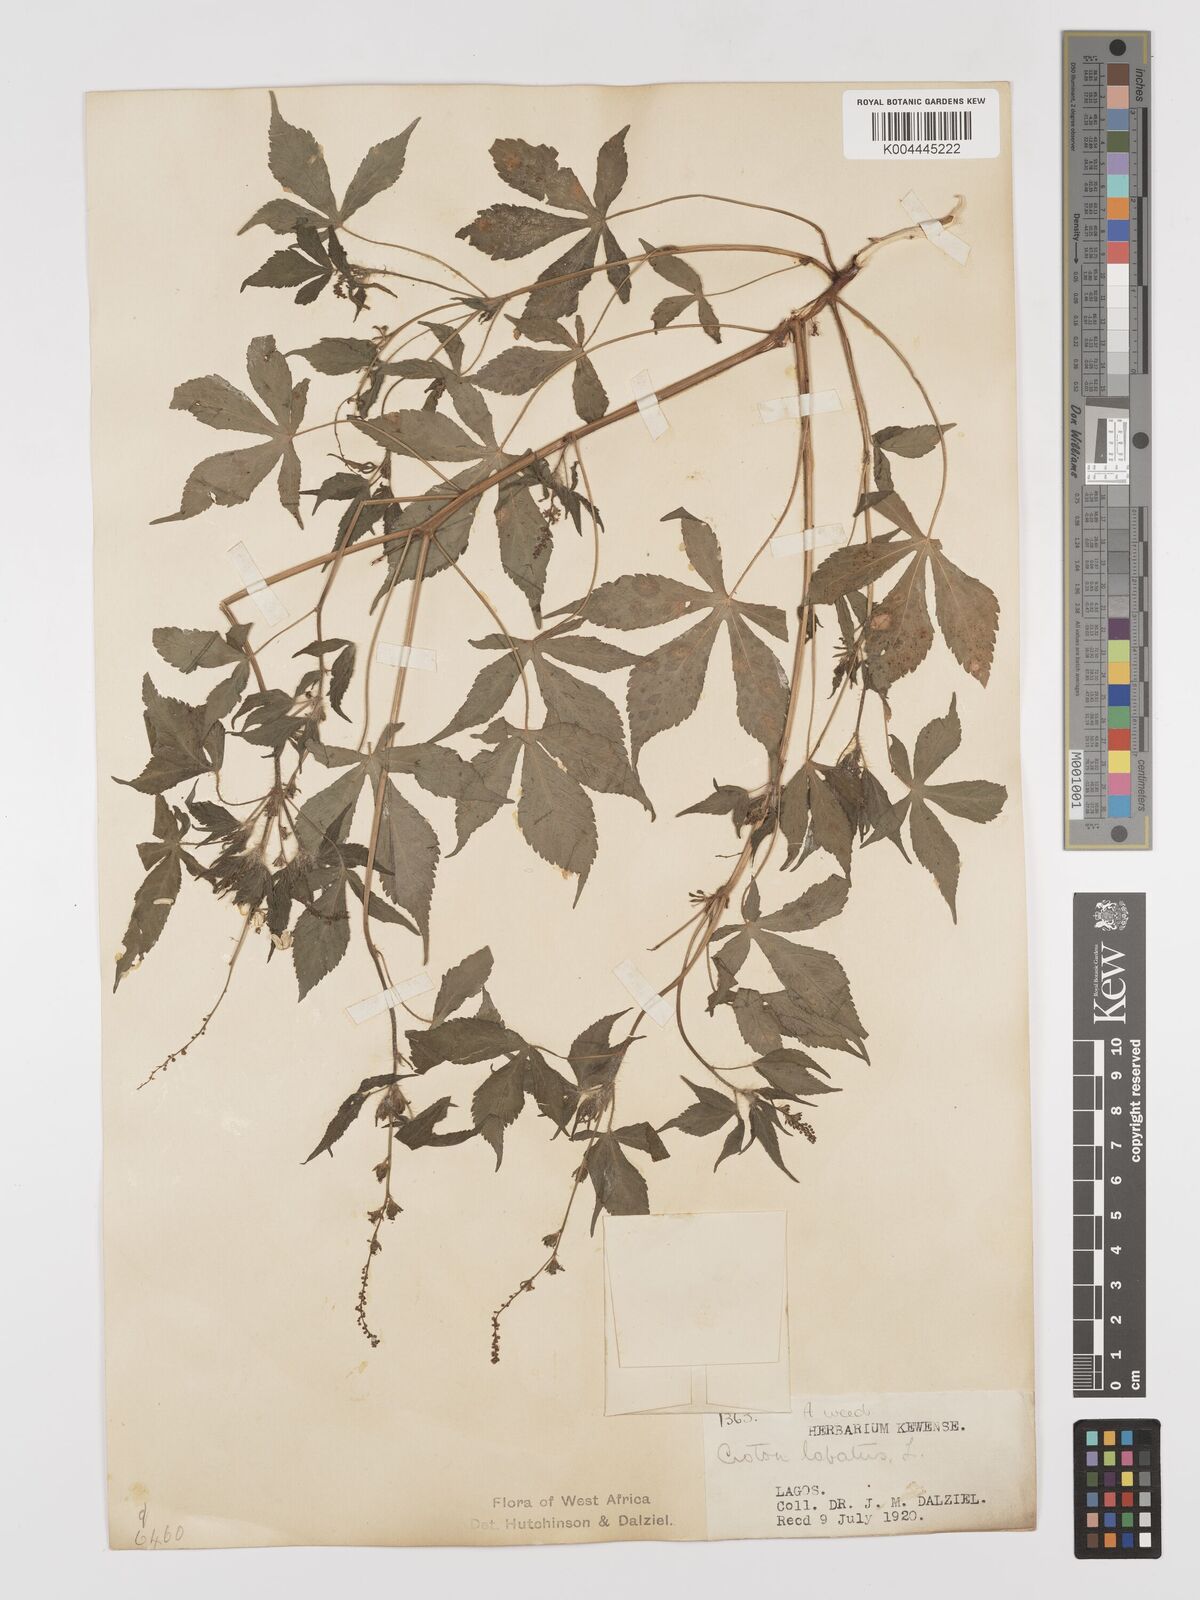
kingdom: Plantae
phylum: Tracheophyta
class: Magnoliopsida
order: Malpighiales
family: Euphorbiaceae
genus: Astraea
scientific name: Astraea lobata
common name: Lobed croton
